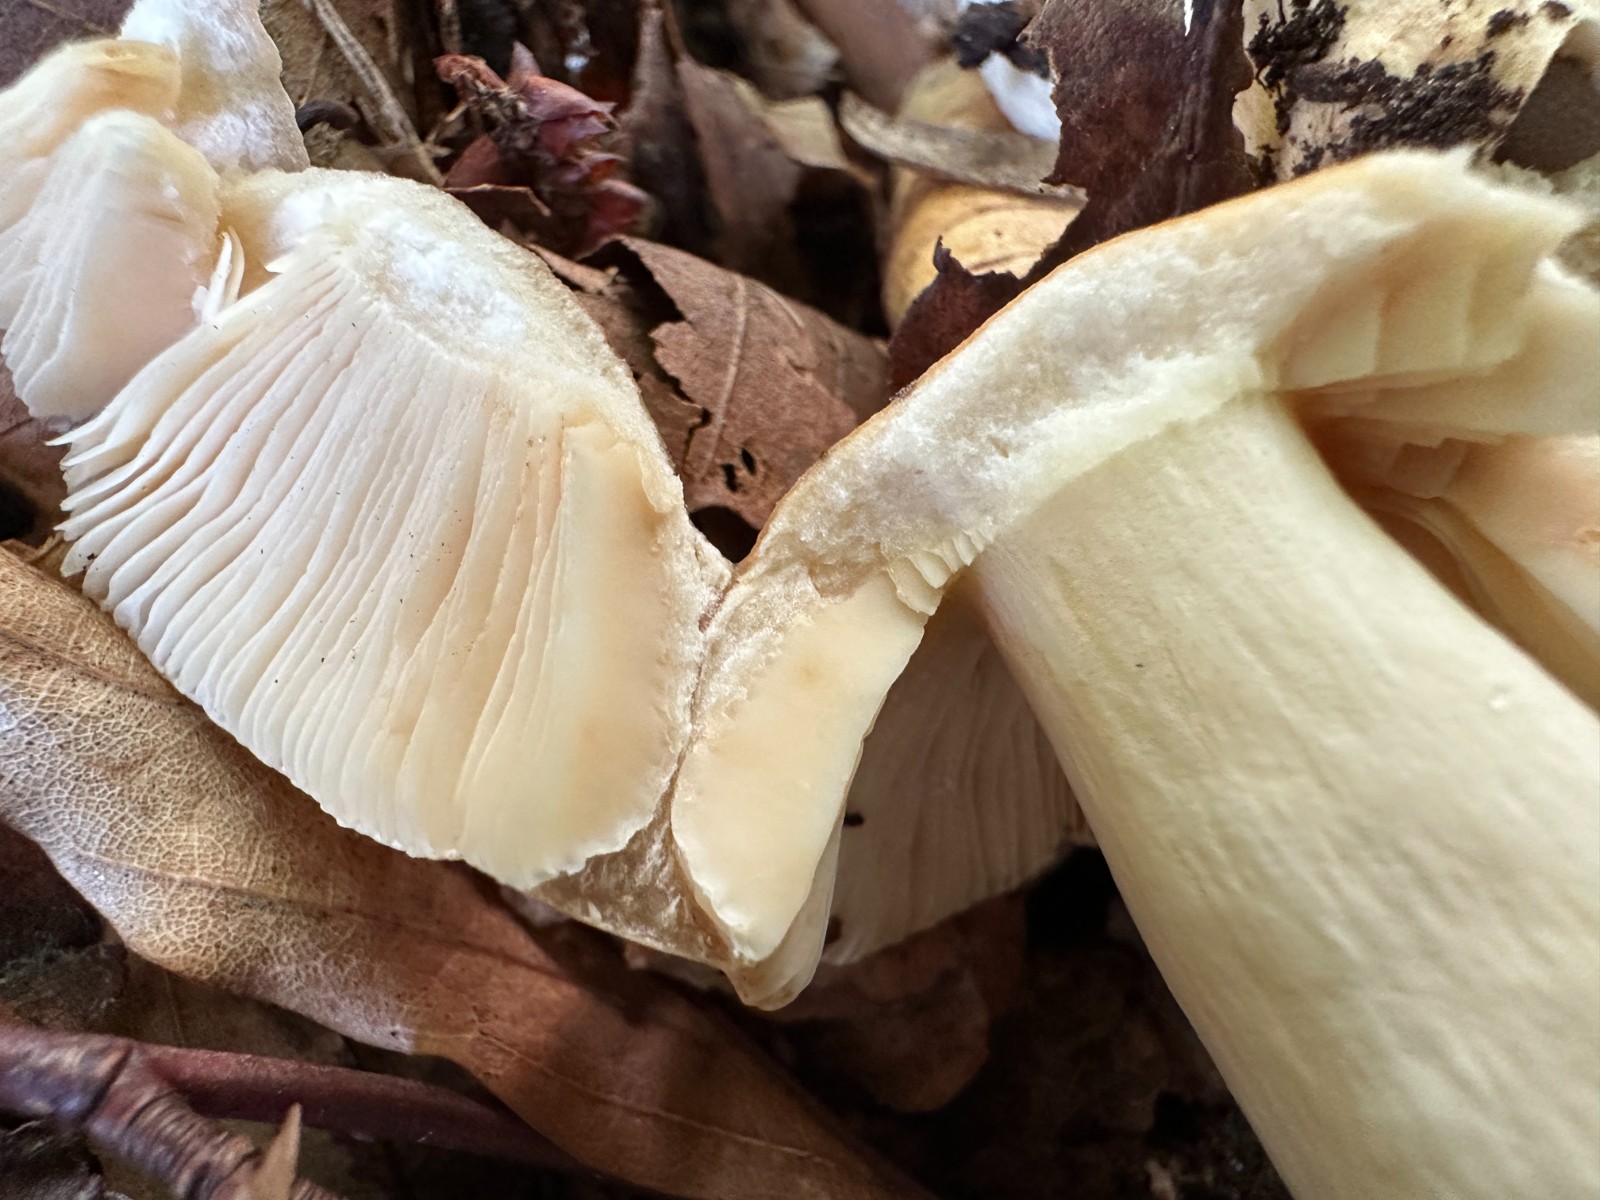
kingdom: Fungi
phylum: Basidiomycota
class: Agaricomycetes
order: Russulales
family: Russulaceae
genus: Russula
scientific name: Russula fellea
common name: galde-skørhat
